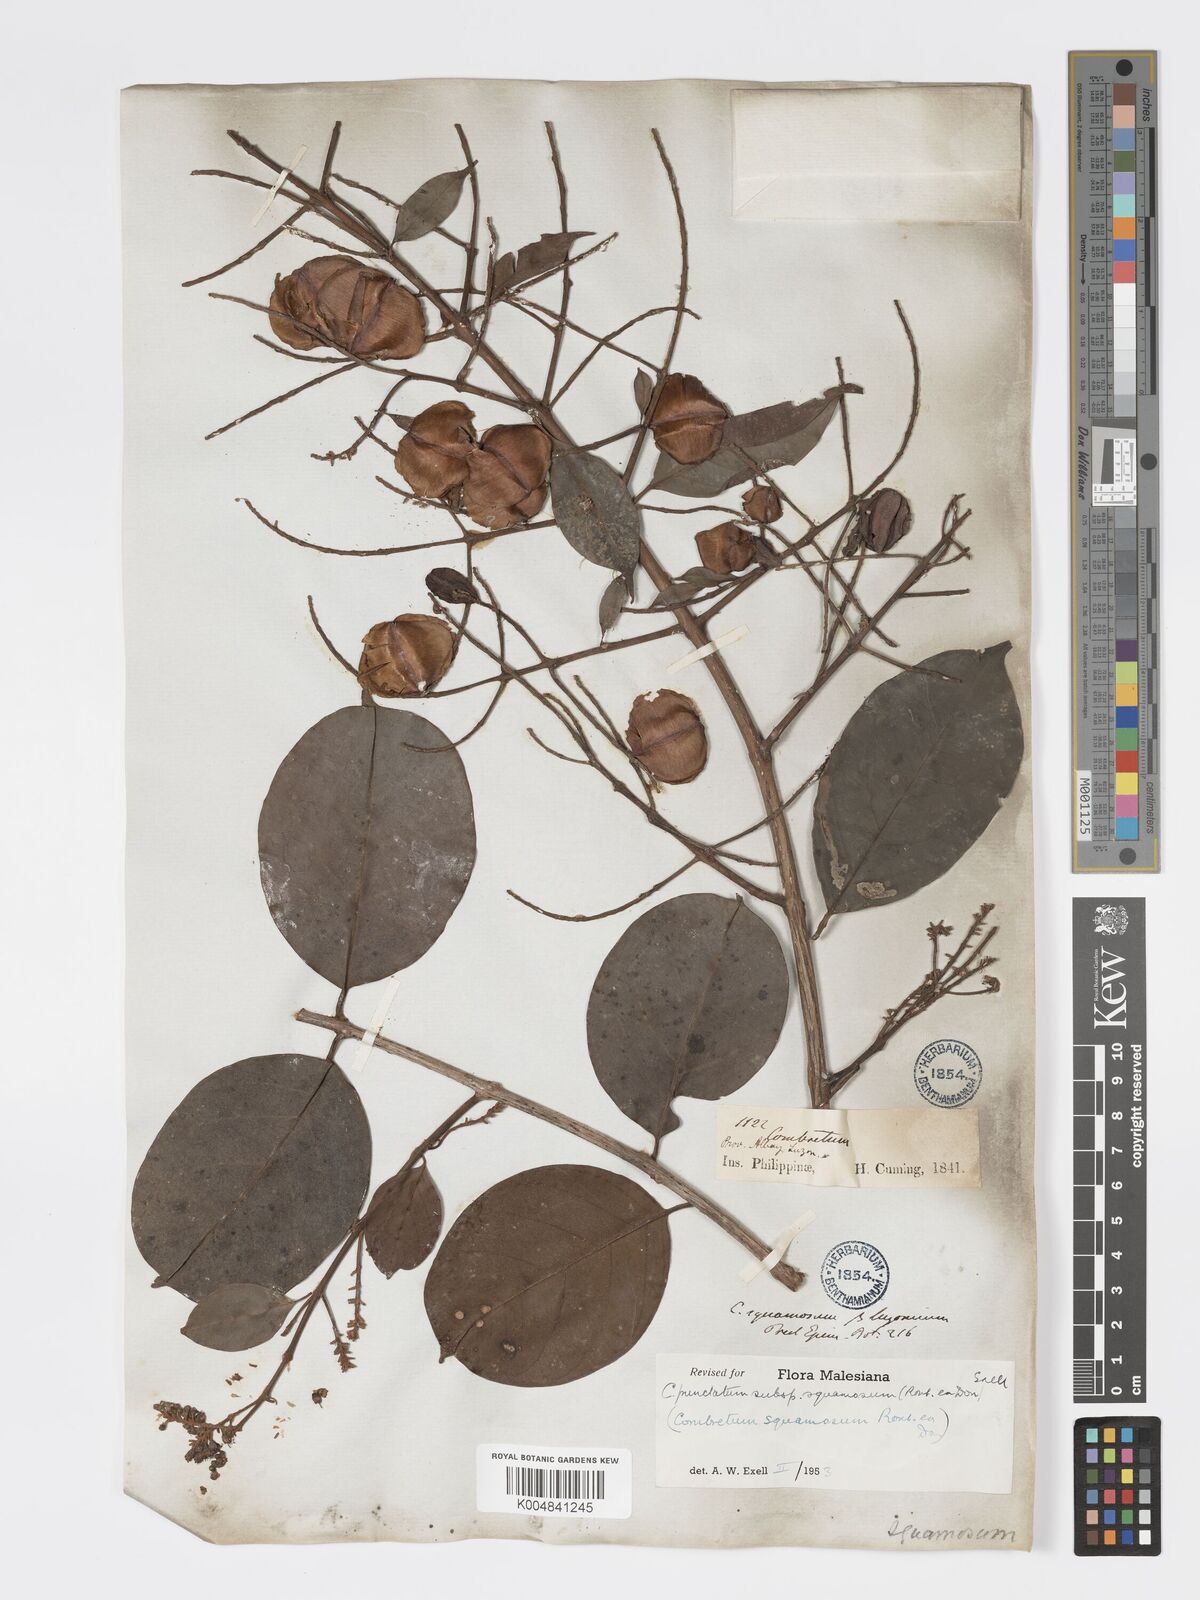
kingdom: Plantae
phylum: Tracheophyta
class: Magnoliopsida
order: Myrtales
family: Combretaceae
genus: Combretum
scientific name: Combretum
